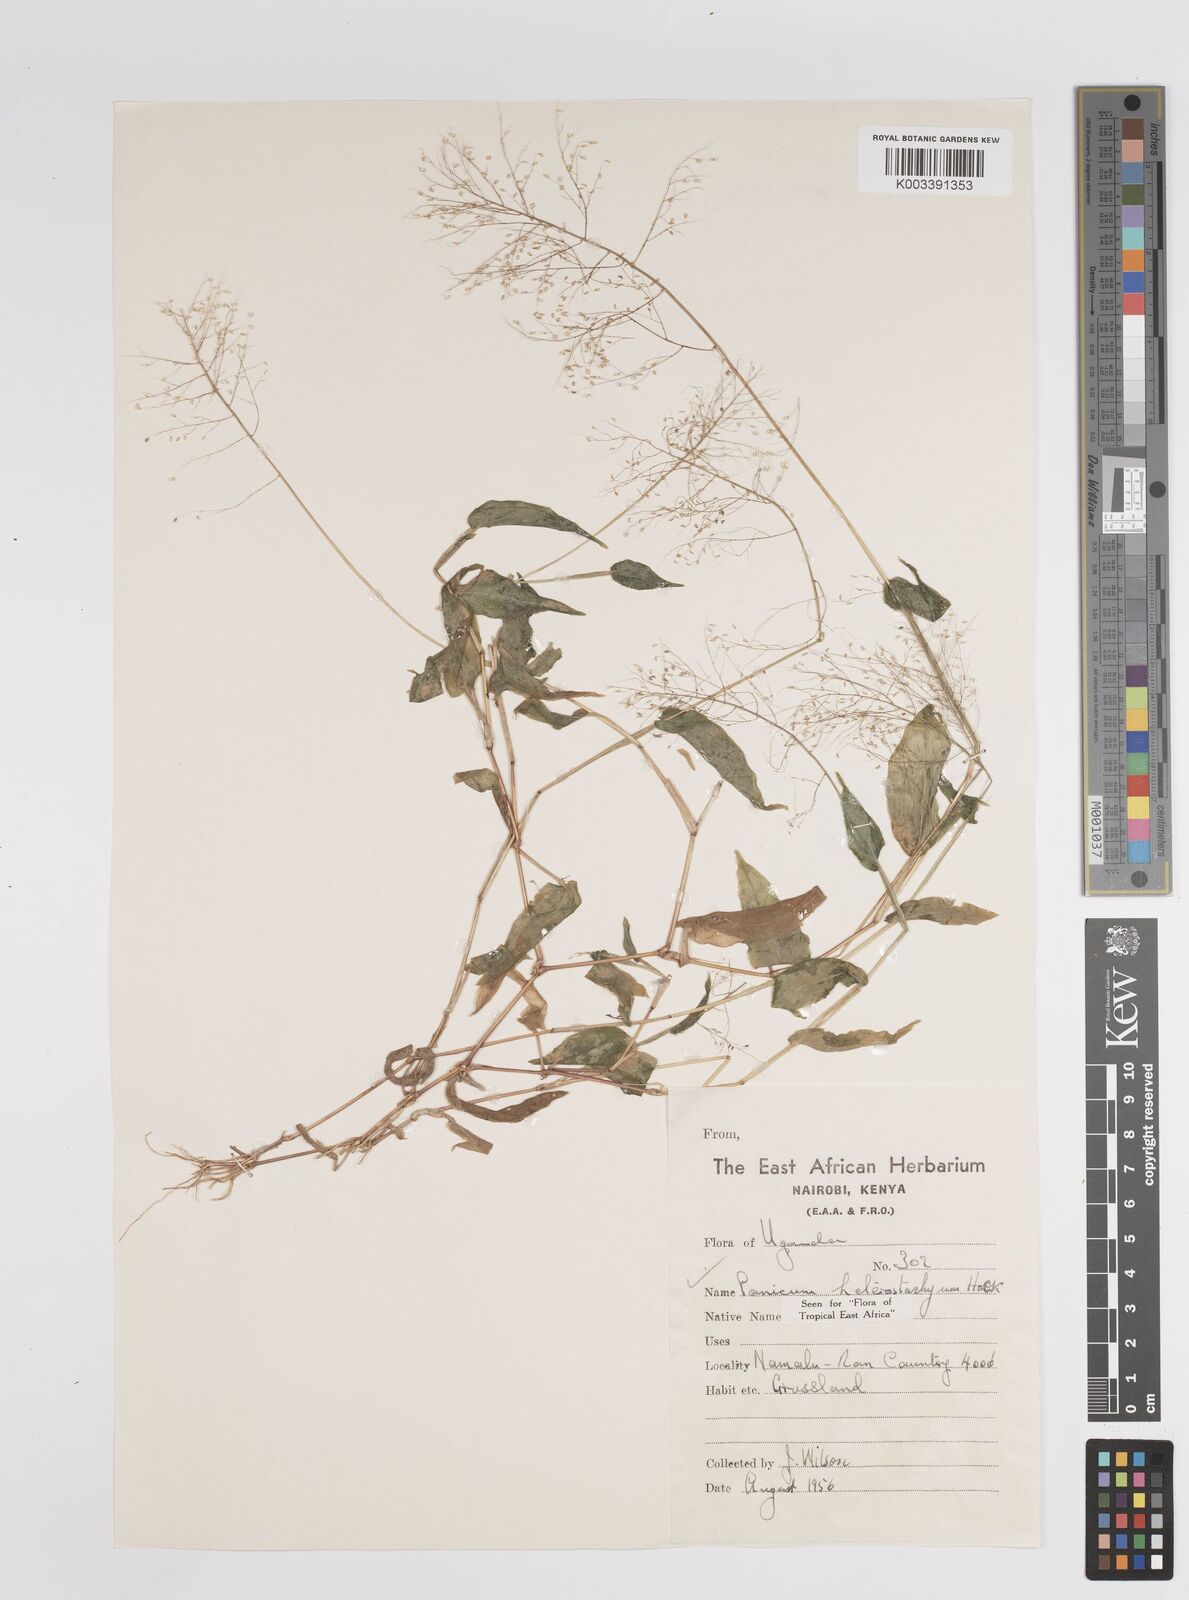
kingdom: Plantae
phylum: Tracheophyta
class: Liliopsida
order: Poales
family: Poaceae
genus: Panicum
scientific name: Panicum hirtum
